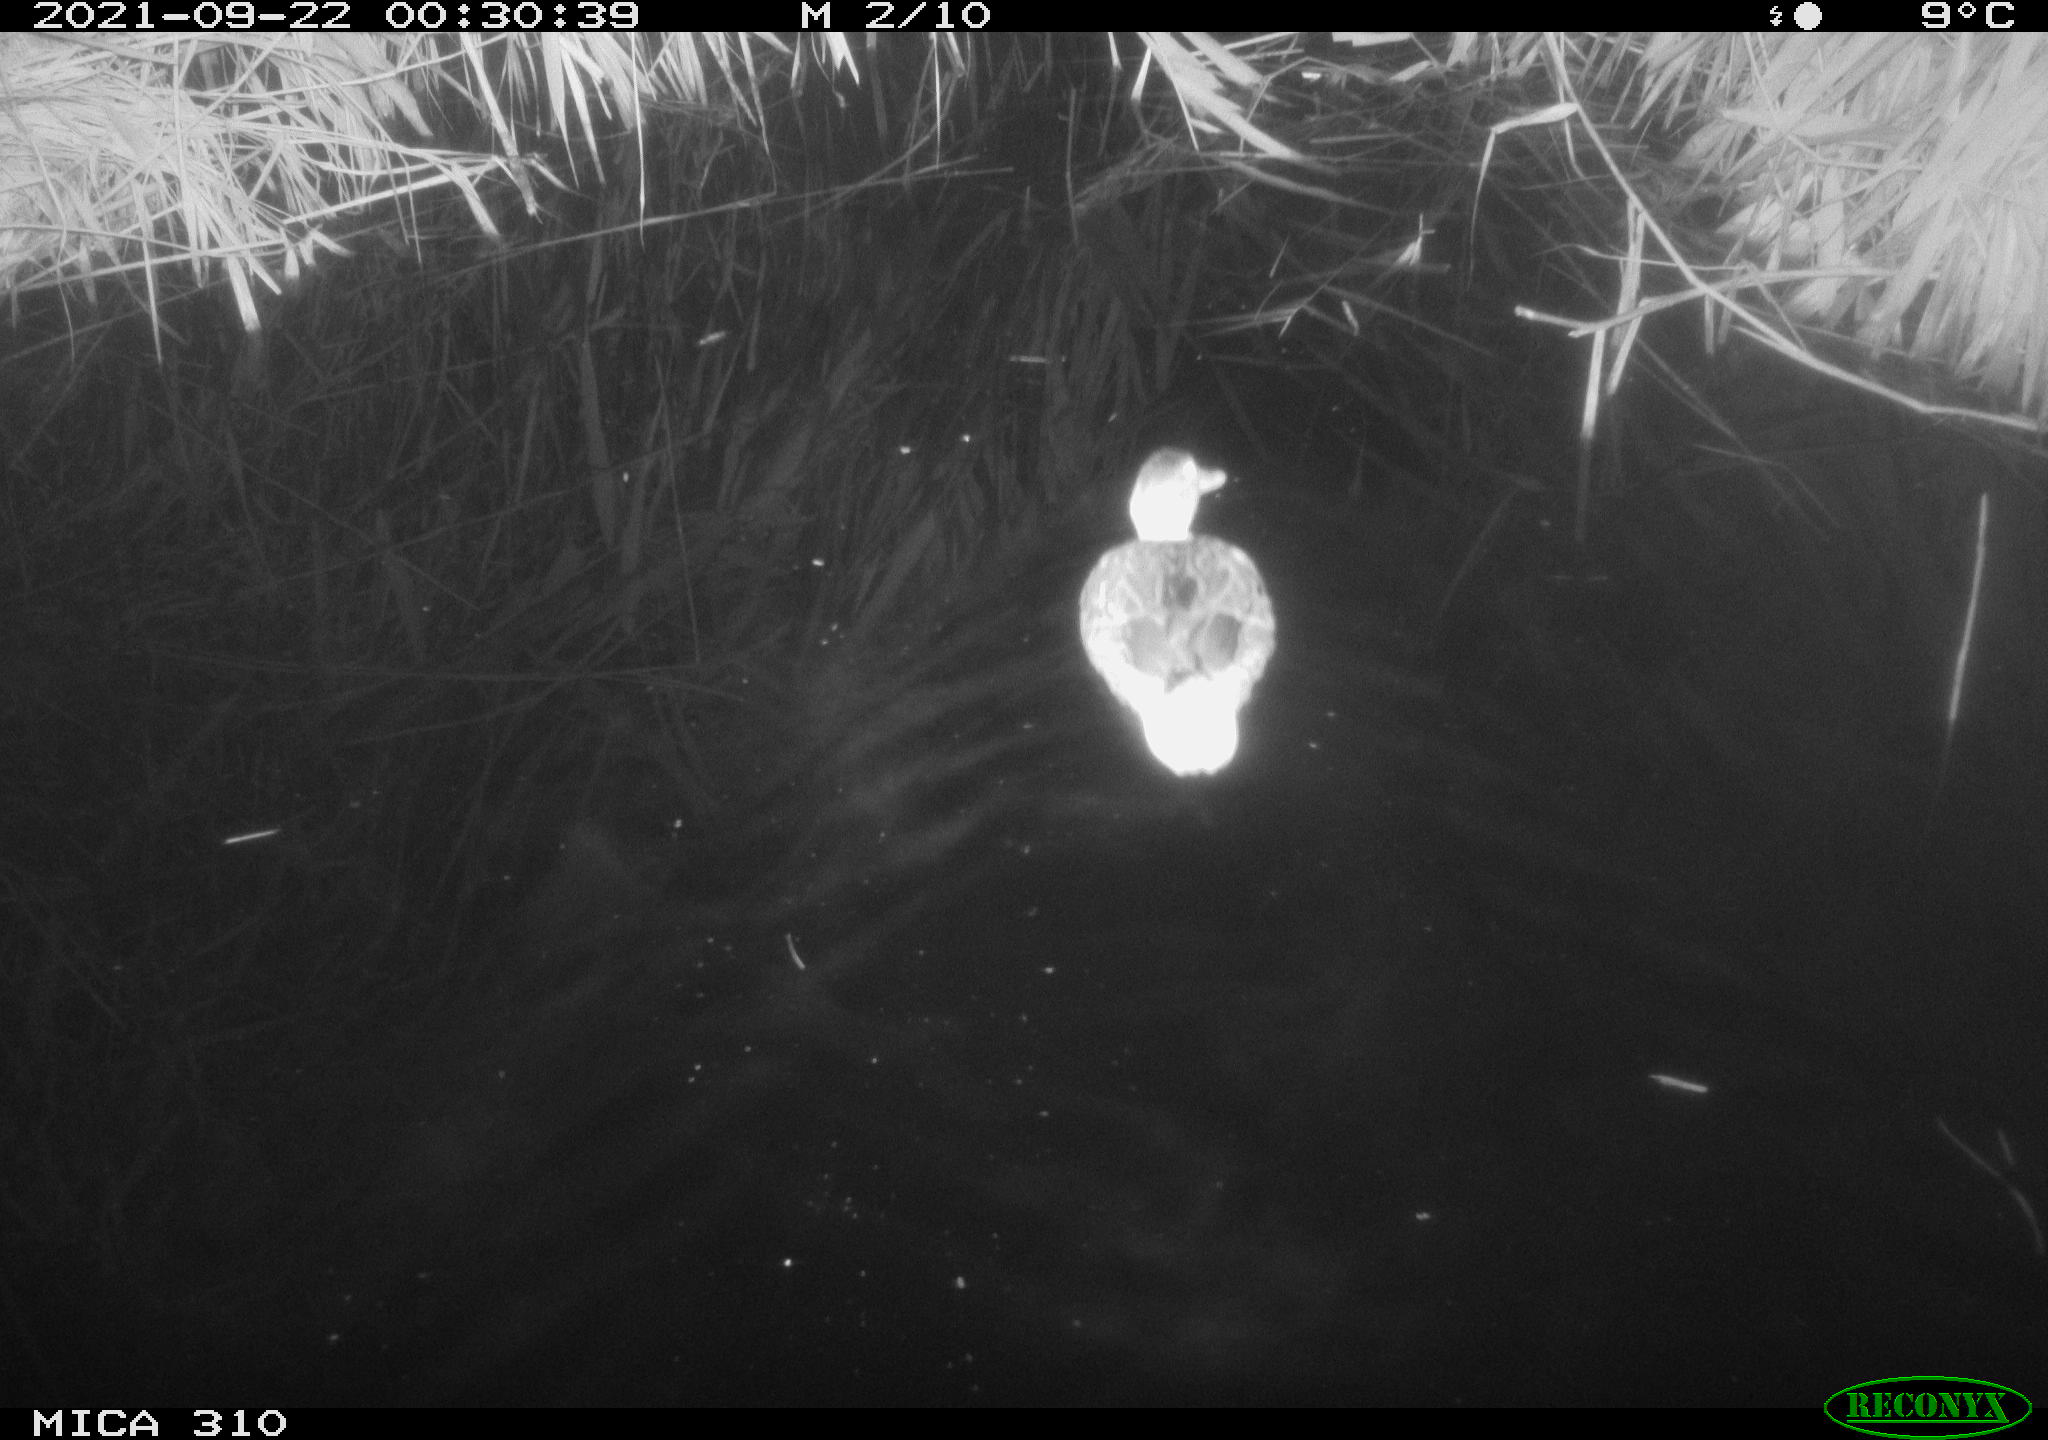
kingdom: Animalia
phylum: Chordata
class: Aves
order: Anseriformes
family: Anatidae
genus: Mareca
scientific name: Mareca strepera
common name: Gadwall
